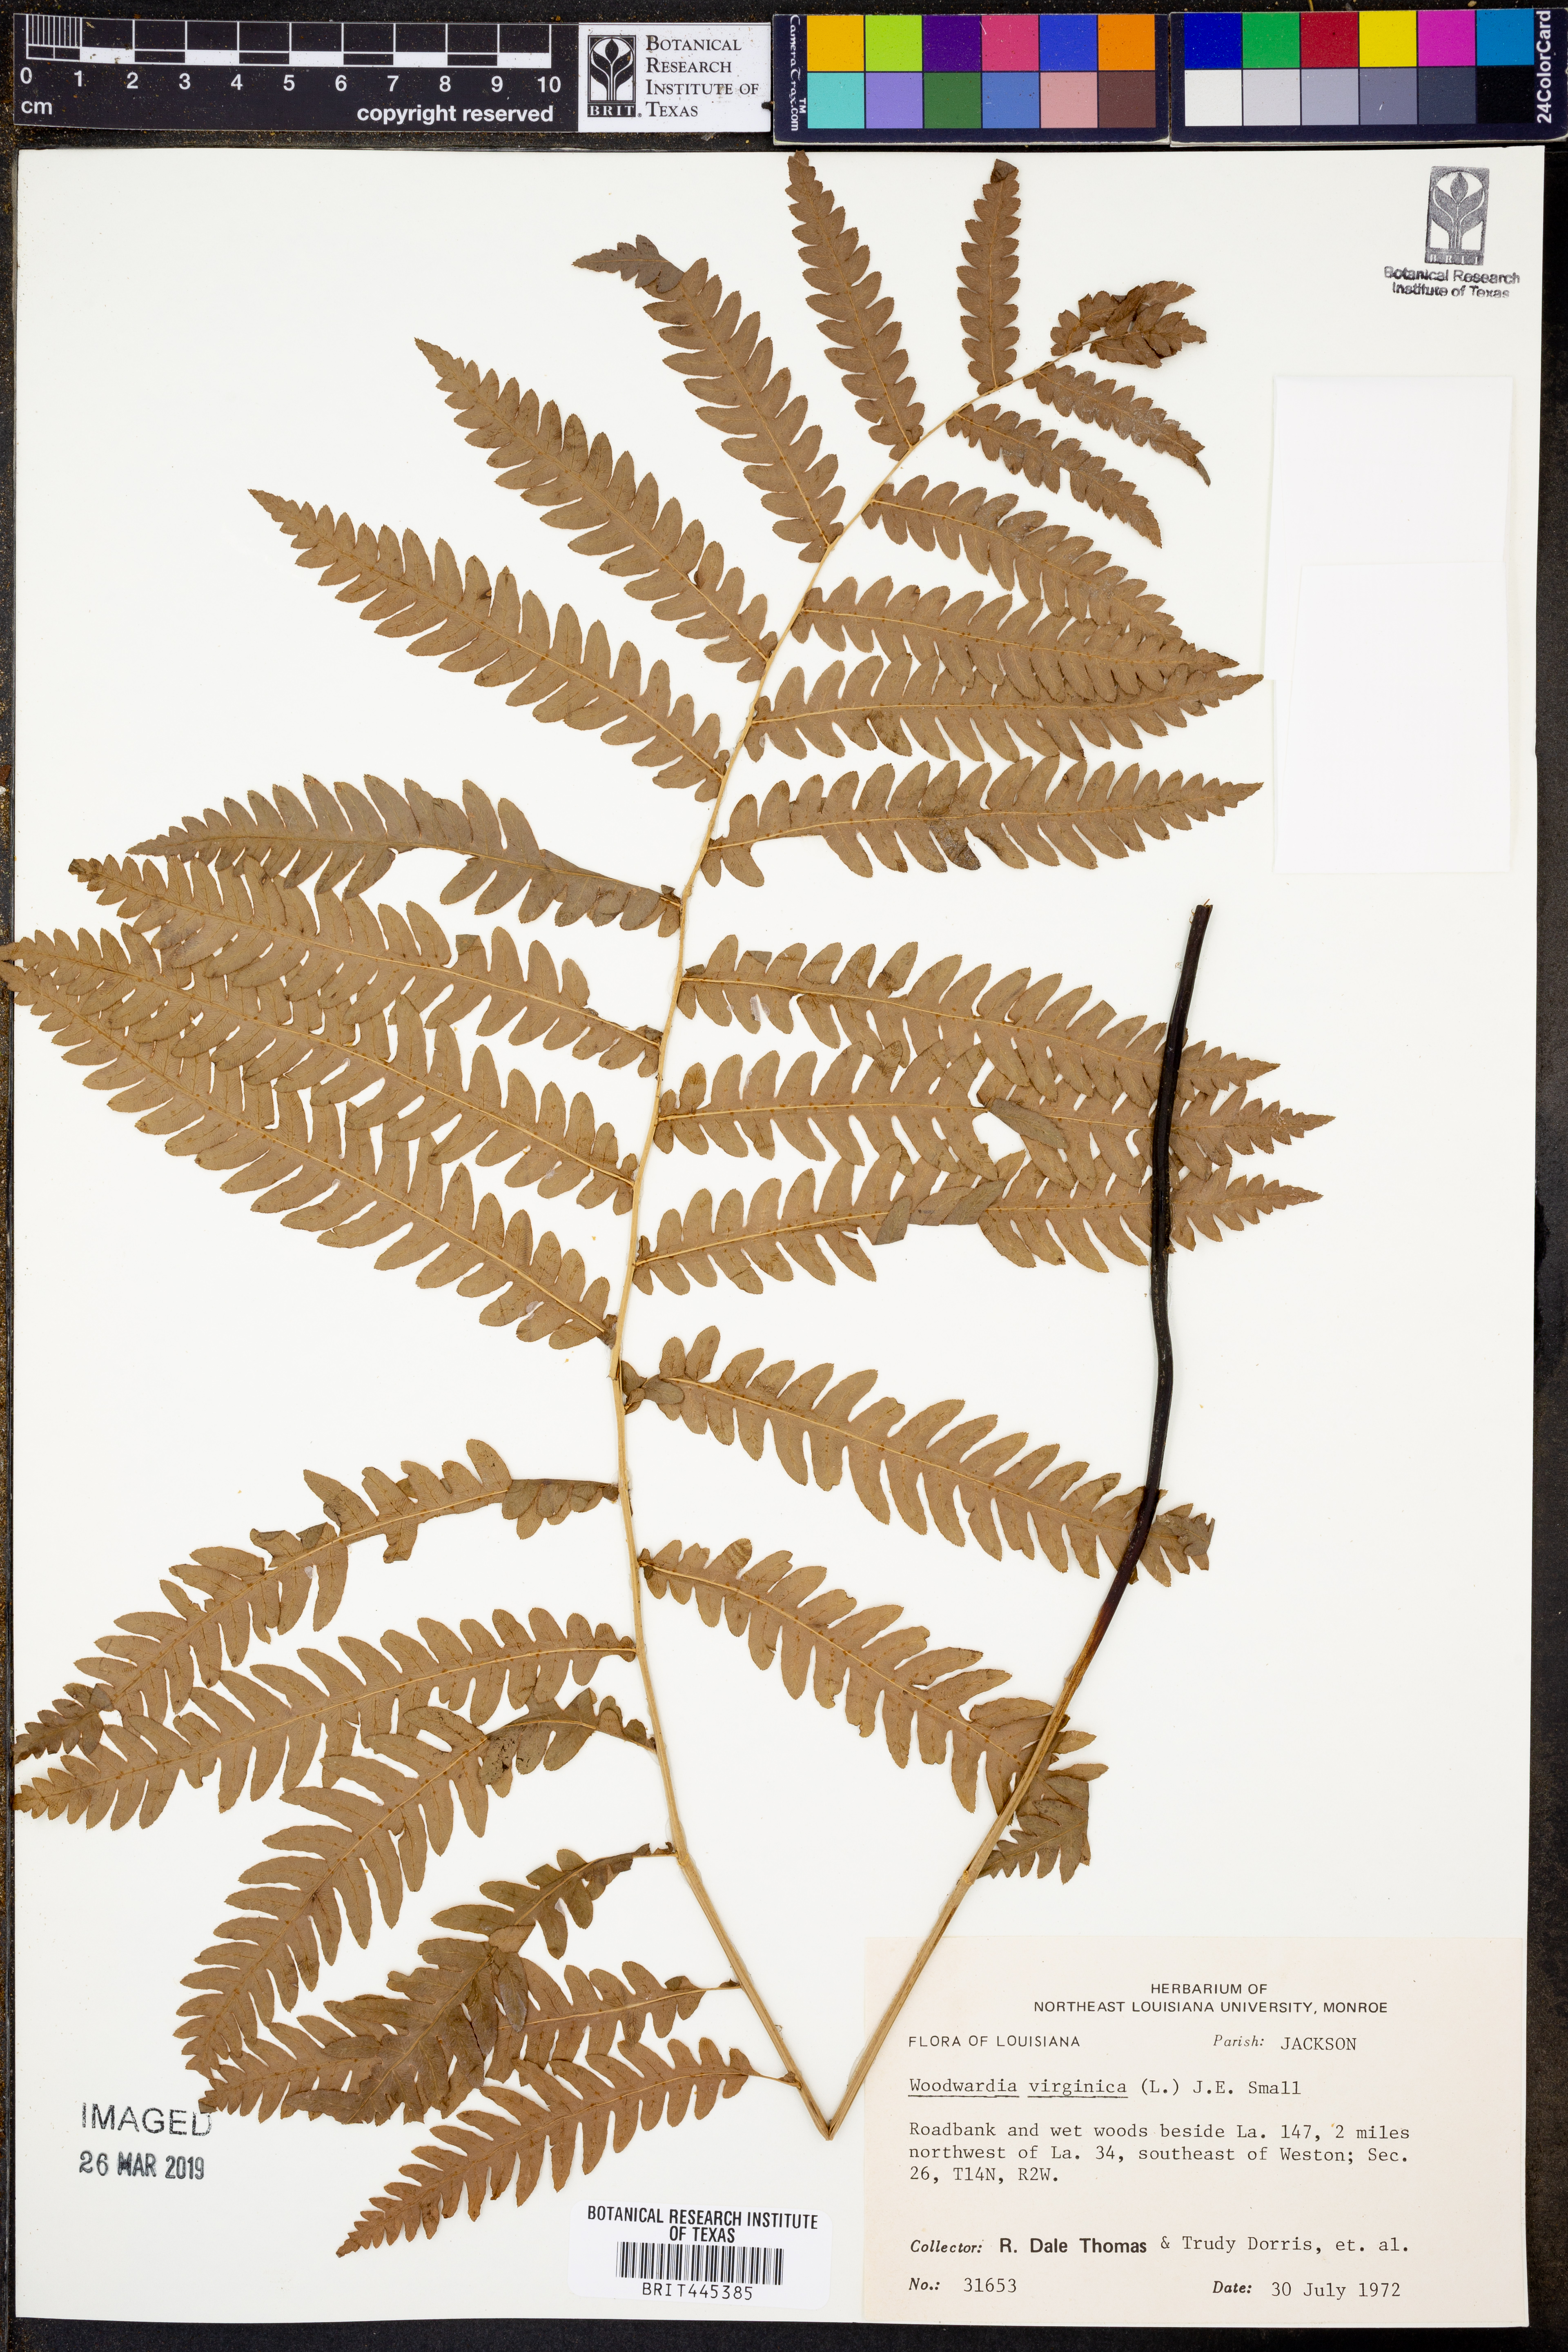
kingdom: Plantae
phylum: Tracheophyta
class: Polypodiopsida
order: Polypodiales
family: Blechnaceae
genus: Anchistea
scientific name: Anchistea virginica
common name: Virginia chain fern
